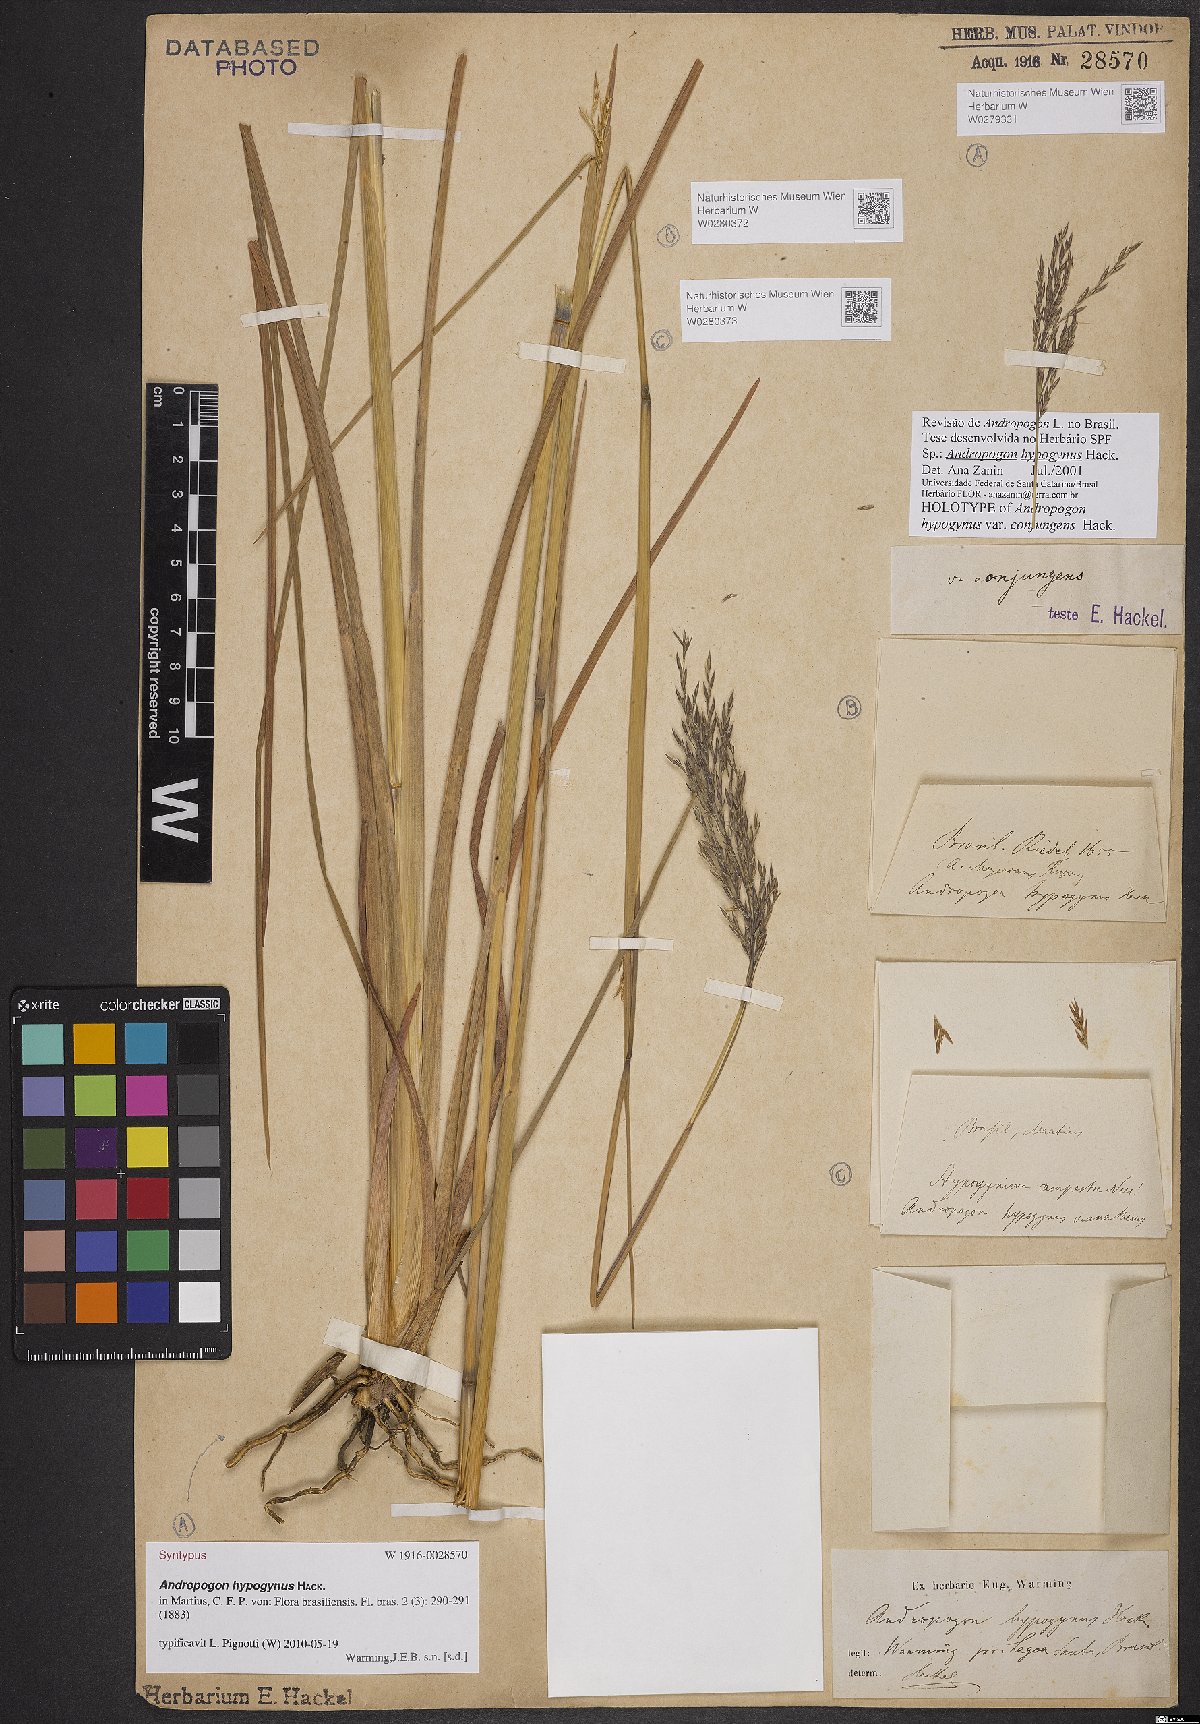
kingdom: Plantae
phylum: Tracheophyta
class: Liliopsida
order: Poales
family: Poaceae
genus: Andropogon
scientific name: Andropogon hypogynus
